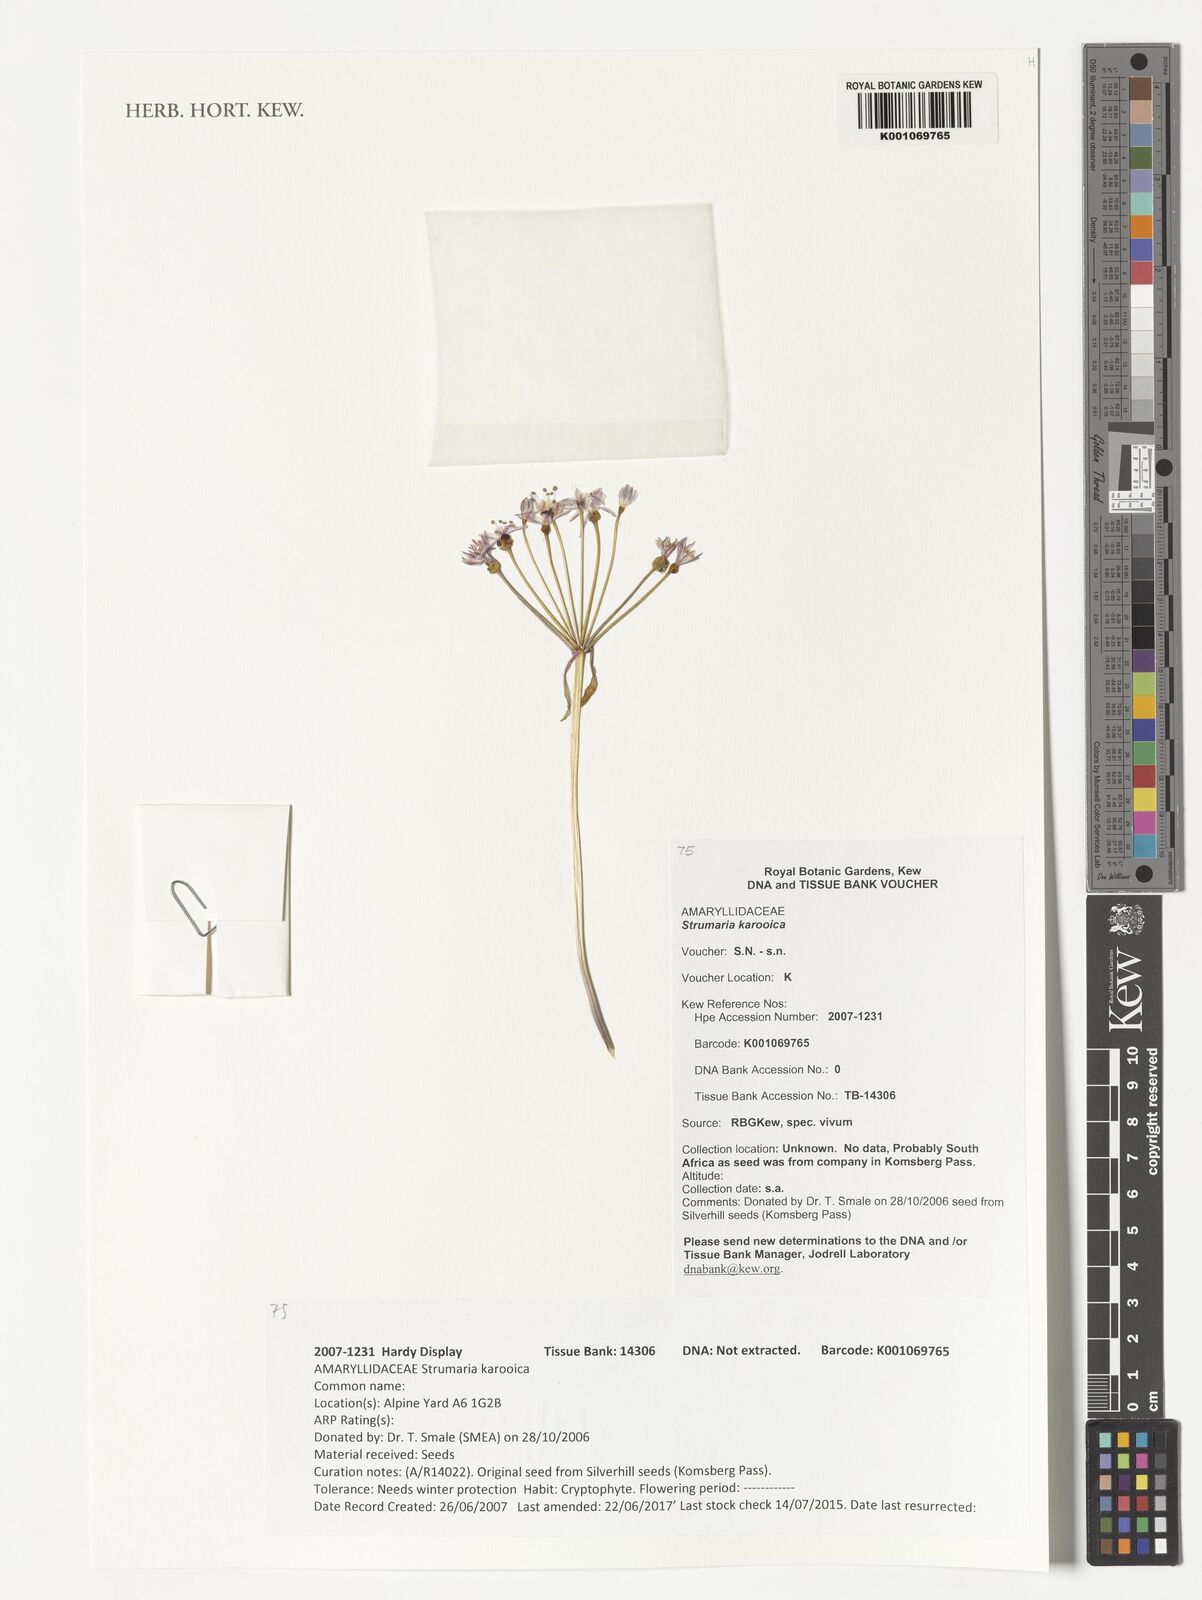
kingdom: Plantae
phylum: Tracheophyta
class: Liliopsida
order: Asparagales
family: Amaryllidaceae
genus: Strumaria
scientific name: Strumaria karooica
